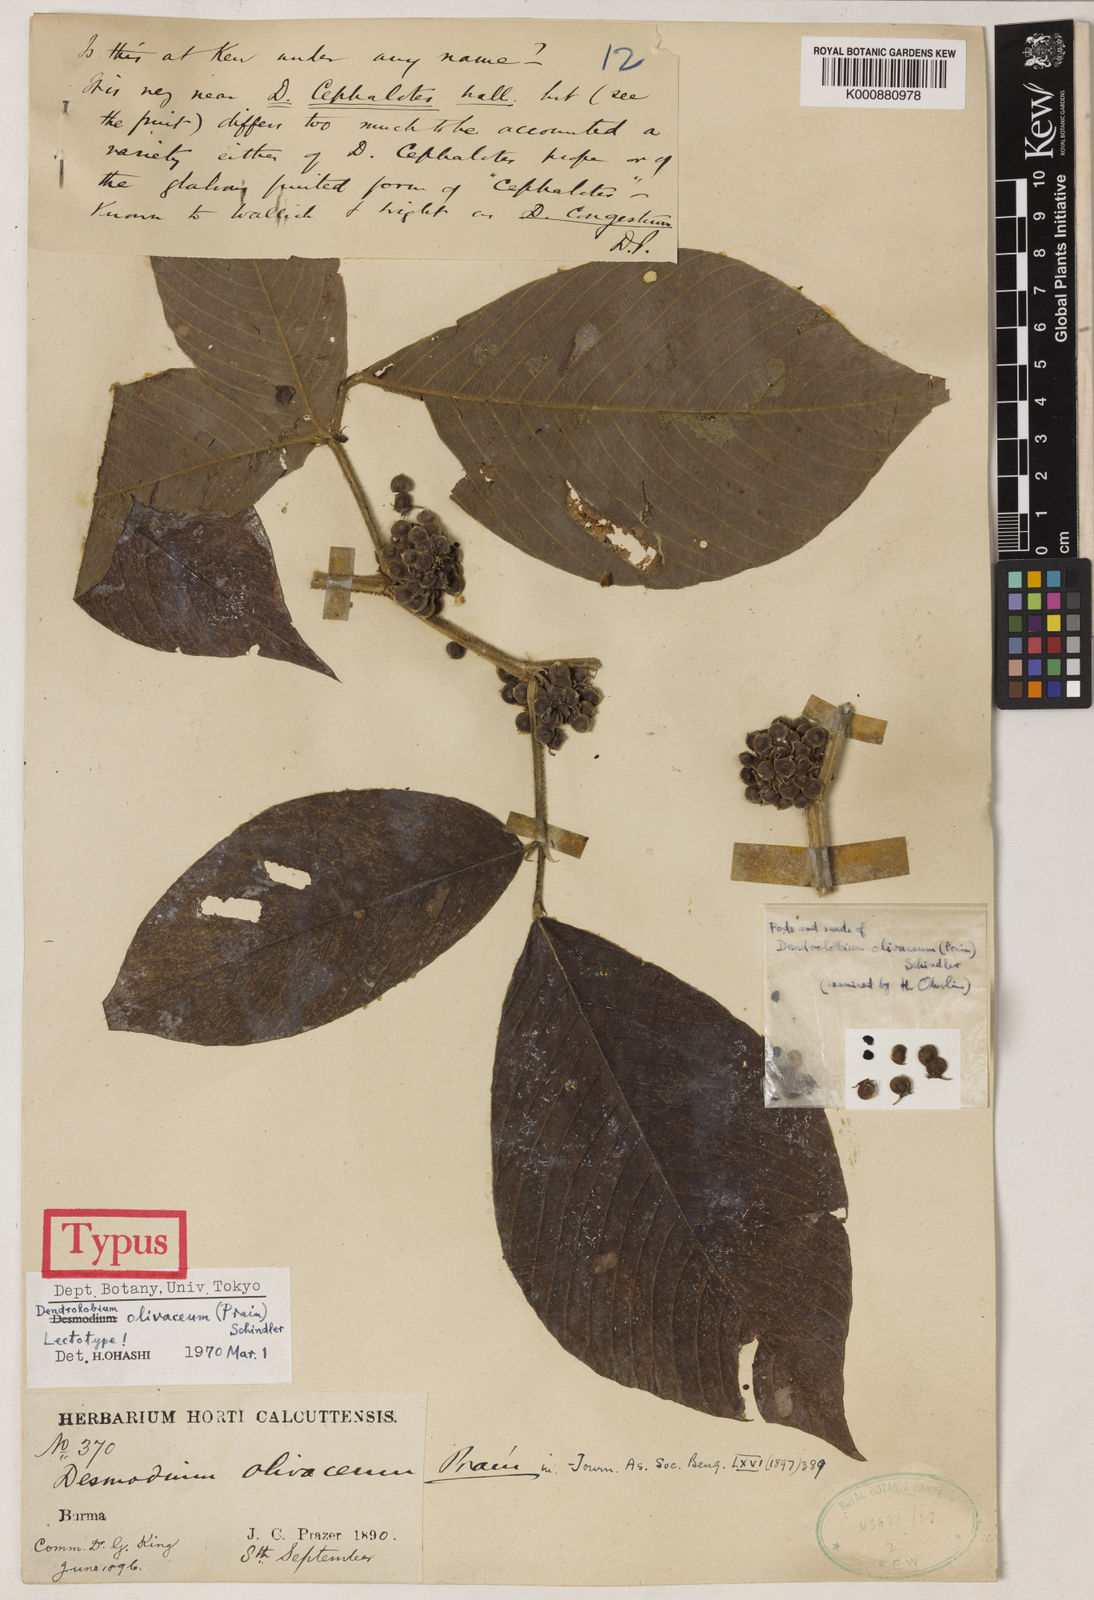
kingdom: Plantae
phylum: Tracheophyta
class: Magnoliopsida
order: Fabales
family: Fabaceae
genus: Dendrolobium
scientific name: Dendrolobium olivaceum
